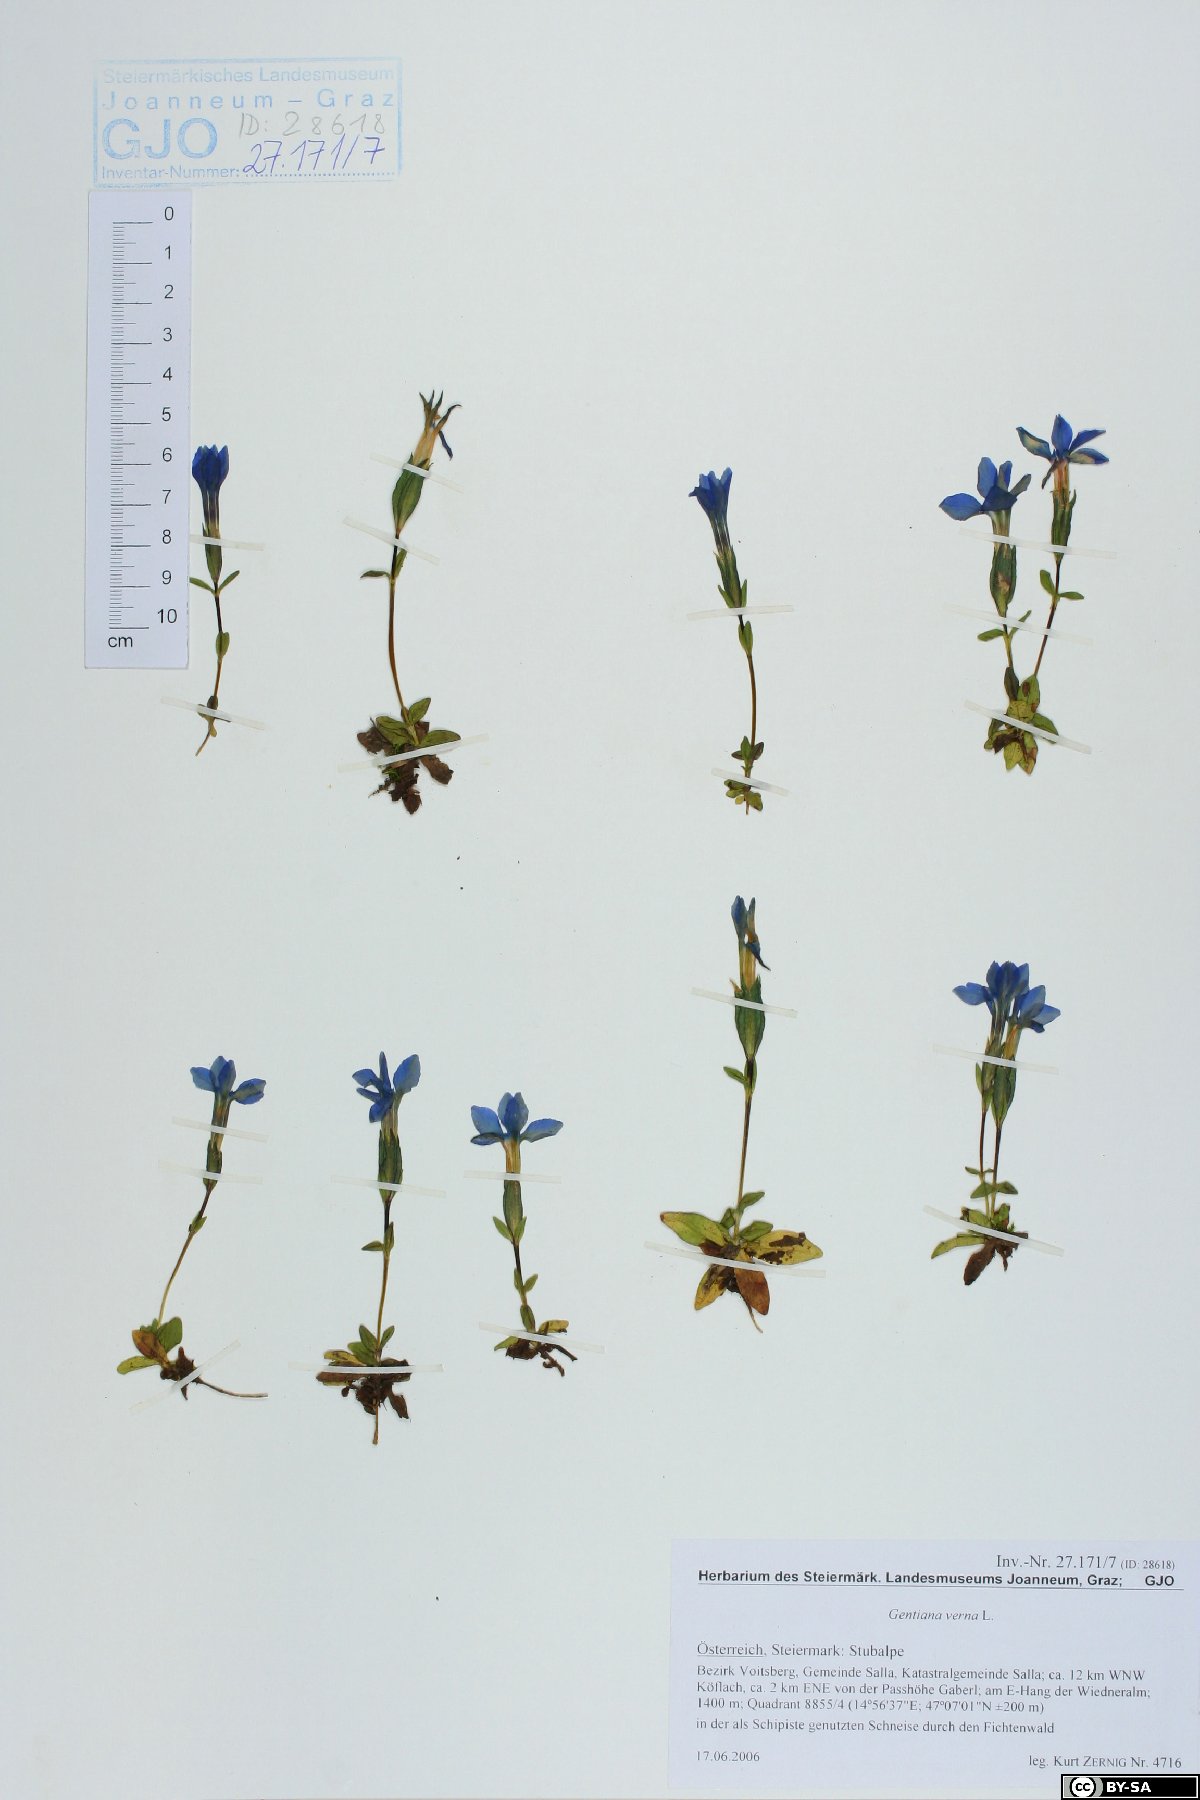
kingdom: Plantae
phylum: Tracheophyta
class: Magnoliopsida
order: Gentianales
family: Gentianaceae
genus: Gentiana
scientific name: Gentiana verna
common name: Spring gentian
